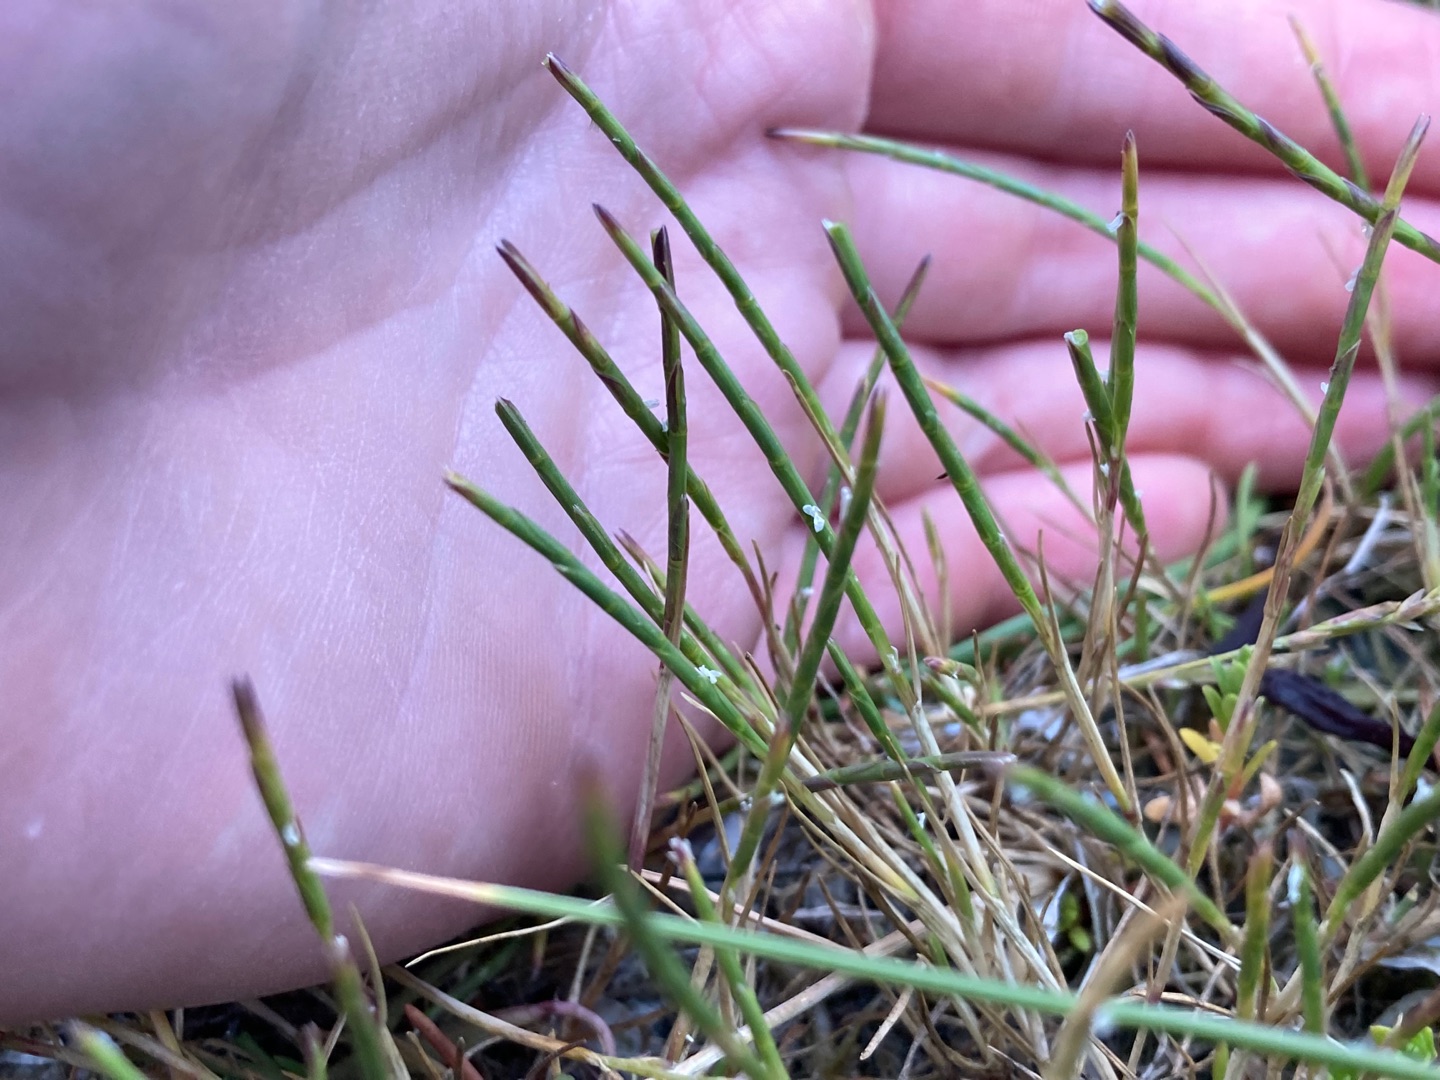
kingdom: Plantae
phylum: Tracheophyta
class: Liliopsida
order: Poales
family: Poaceae
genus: Parapholis
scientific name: Parapholis strigosa
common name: Spidshale
